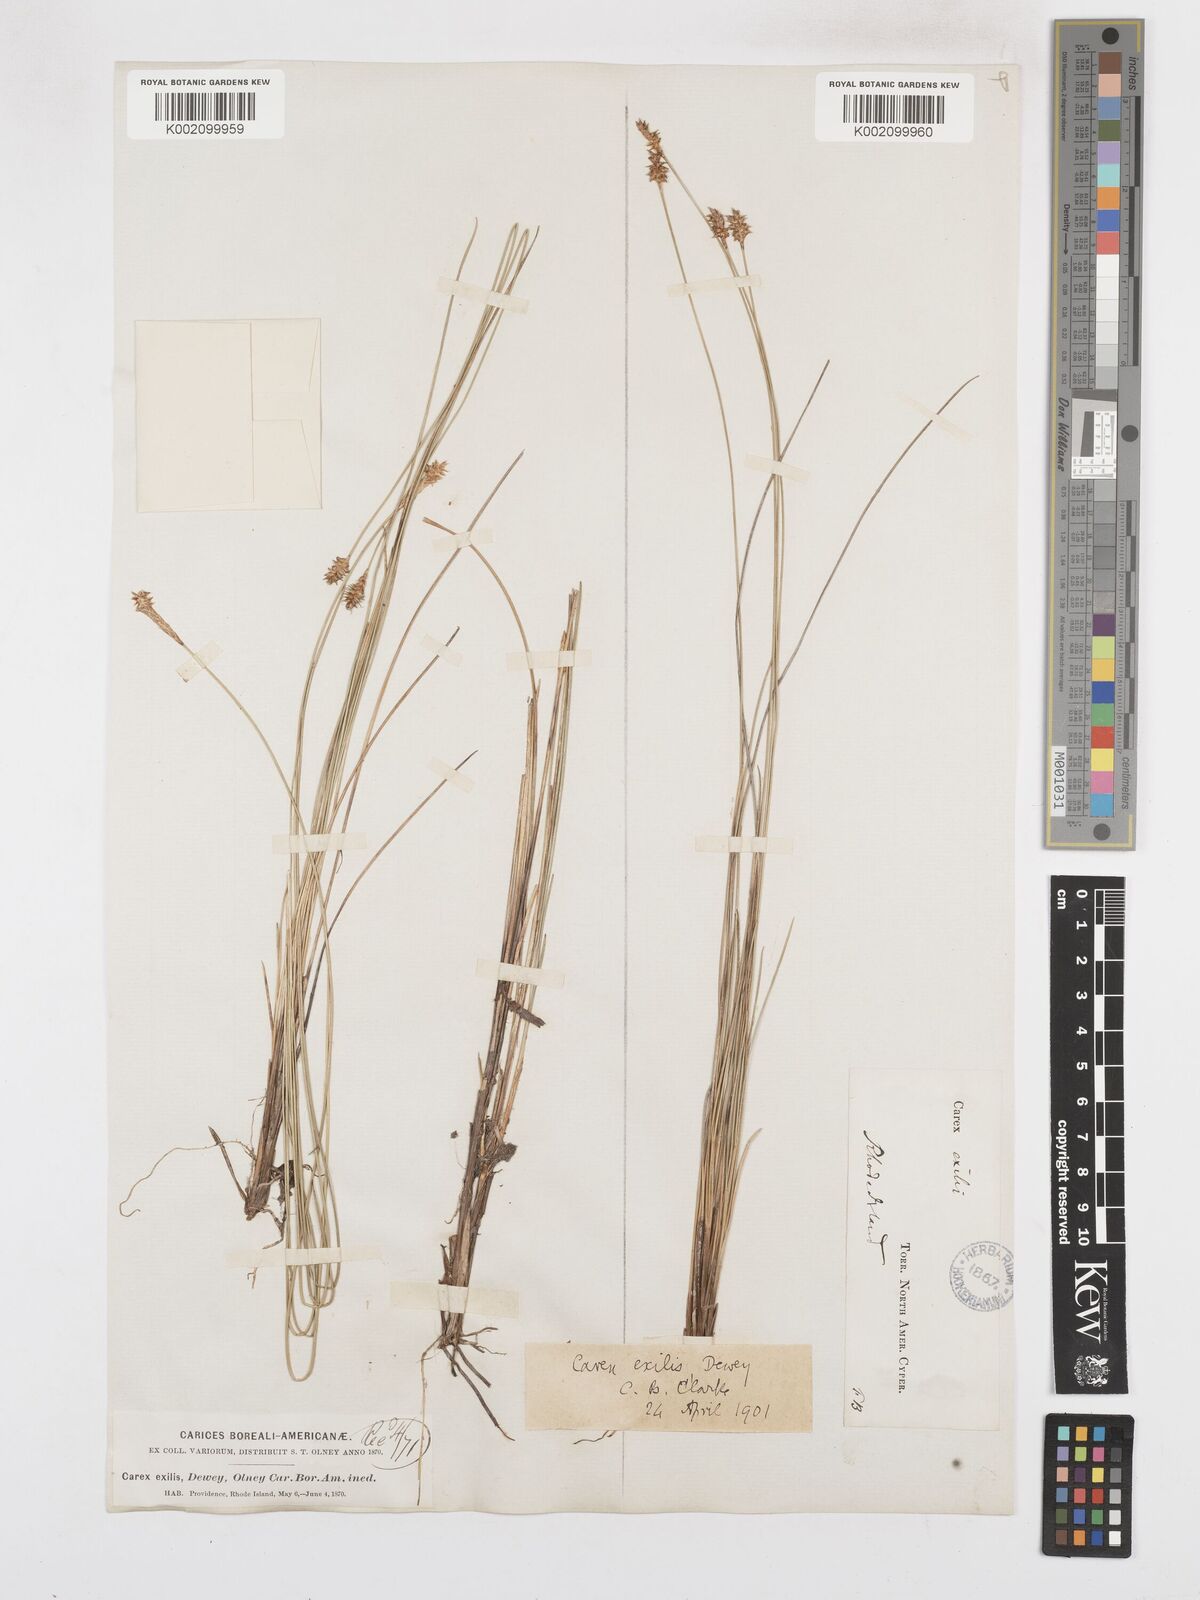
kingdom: Plantae
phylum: Tracheophyta
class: Liliopsida
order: Poales
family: Cyperaceae
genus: Carex
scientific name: Carex exilis
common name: Coastal sedge
